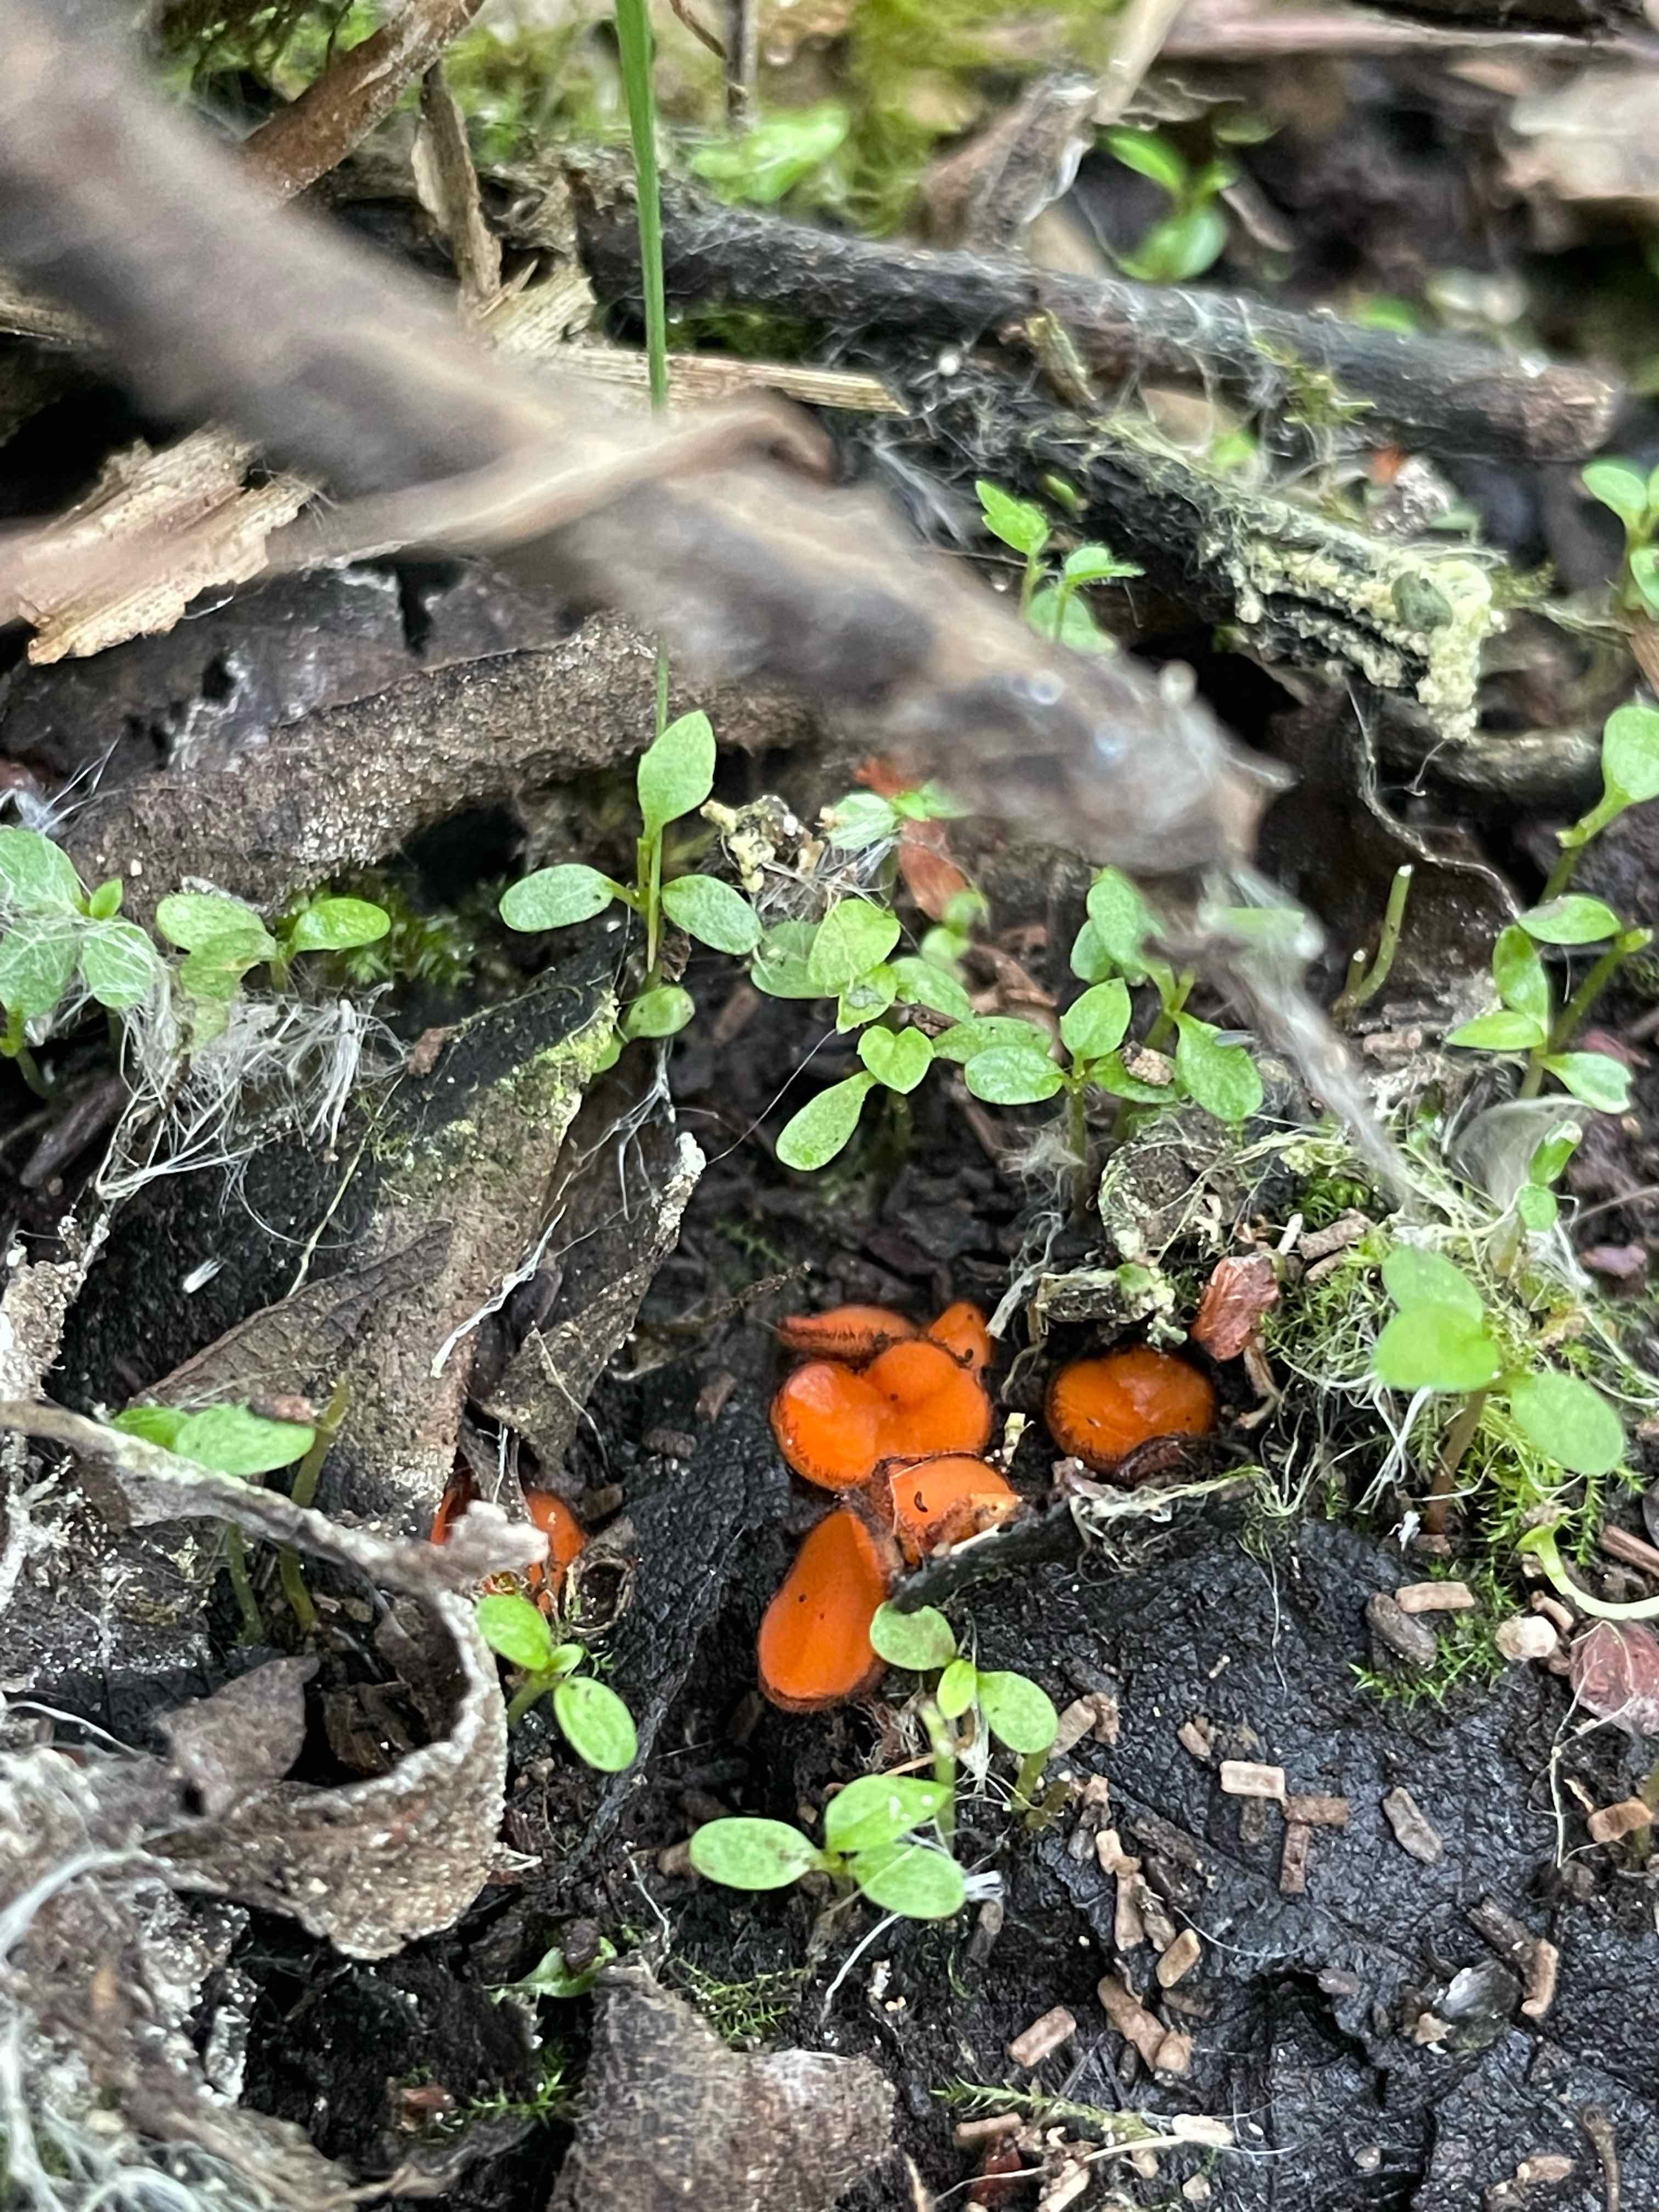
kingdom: Fungi
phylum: Ascomycota
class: Pezizomycetes
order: Pezizales
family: Pyronemataceae
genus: Scutellinia
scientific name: Scutellinia
